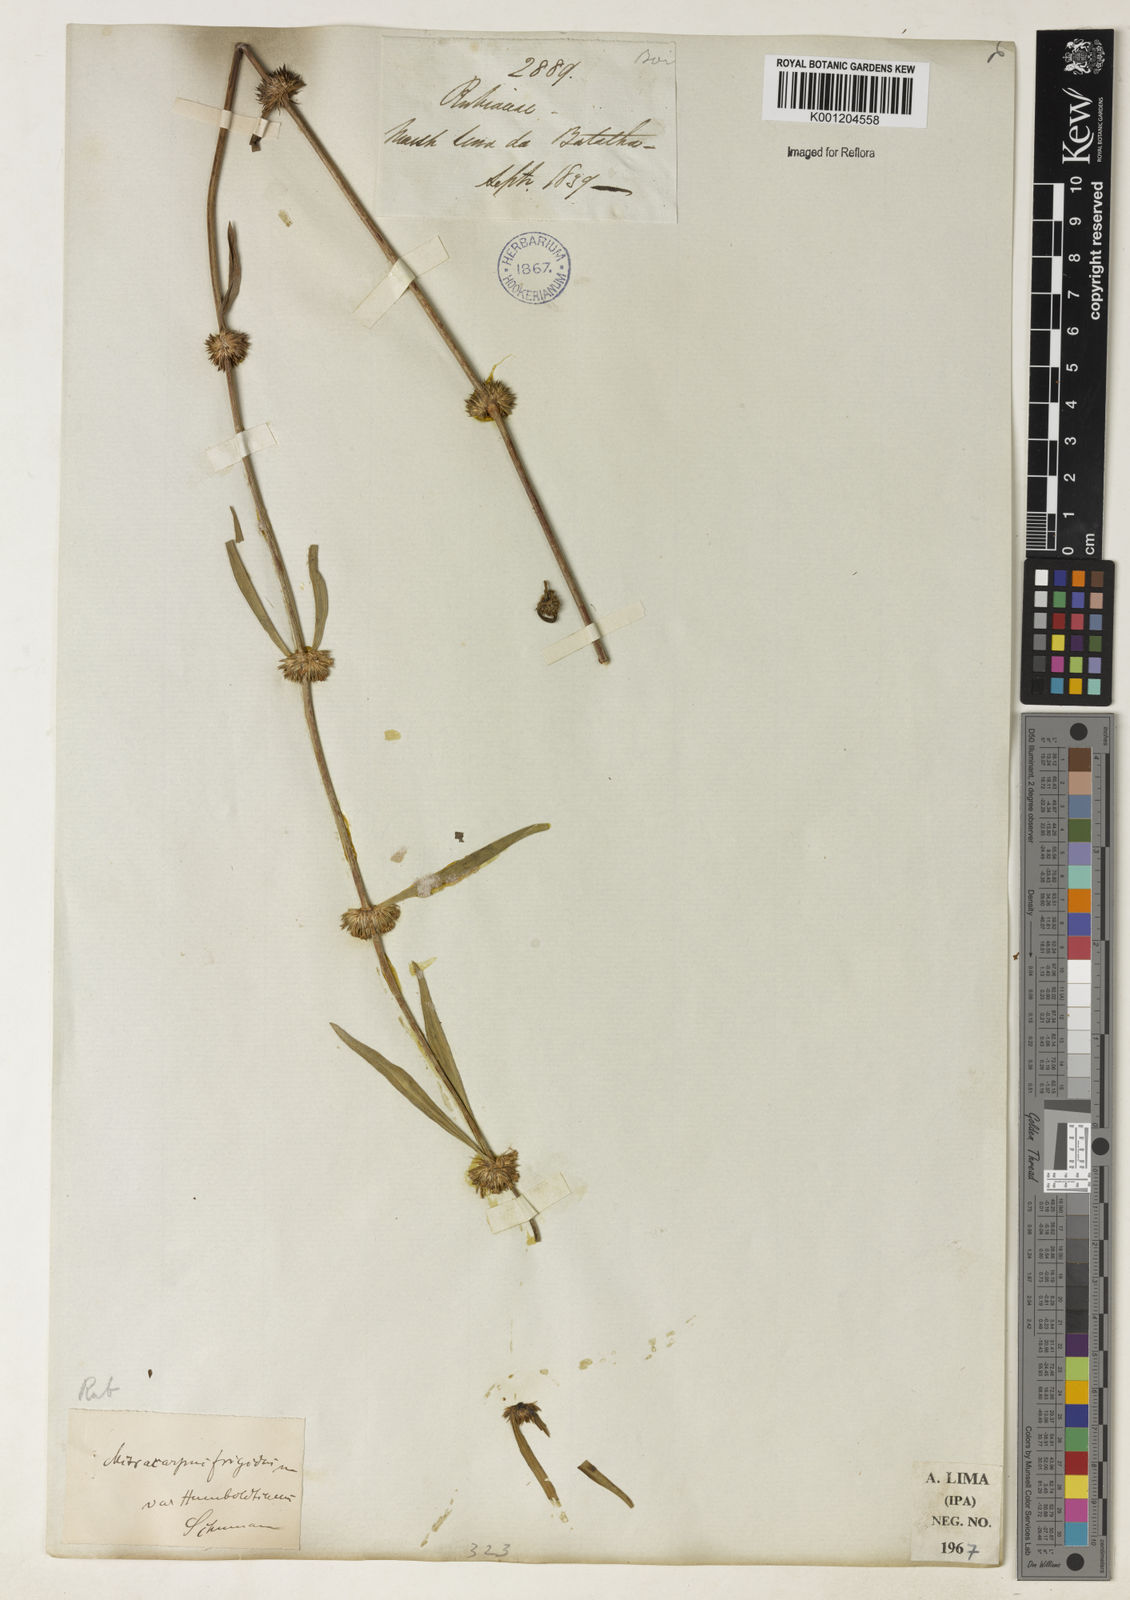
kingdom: Plantae
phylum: Tracheophyta
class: Magnoliopsida
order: Gentianales
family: Rubiaceae
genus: Mitracarpus
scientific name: Mitracarpus
